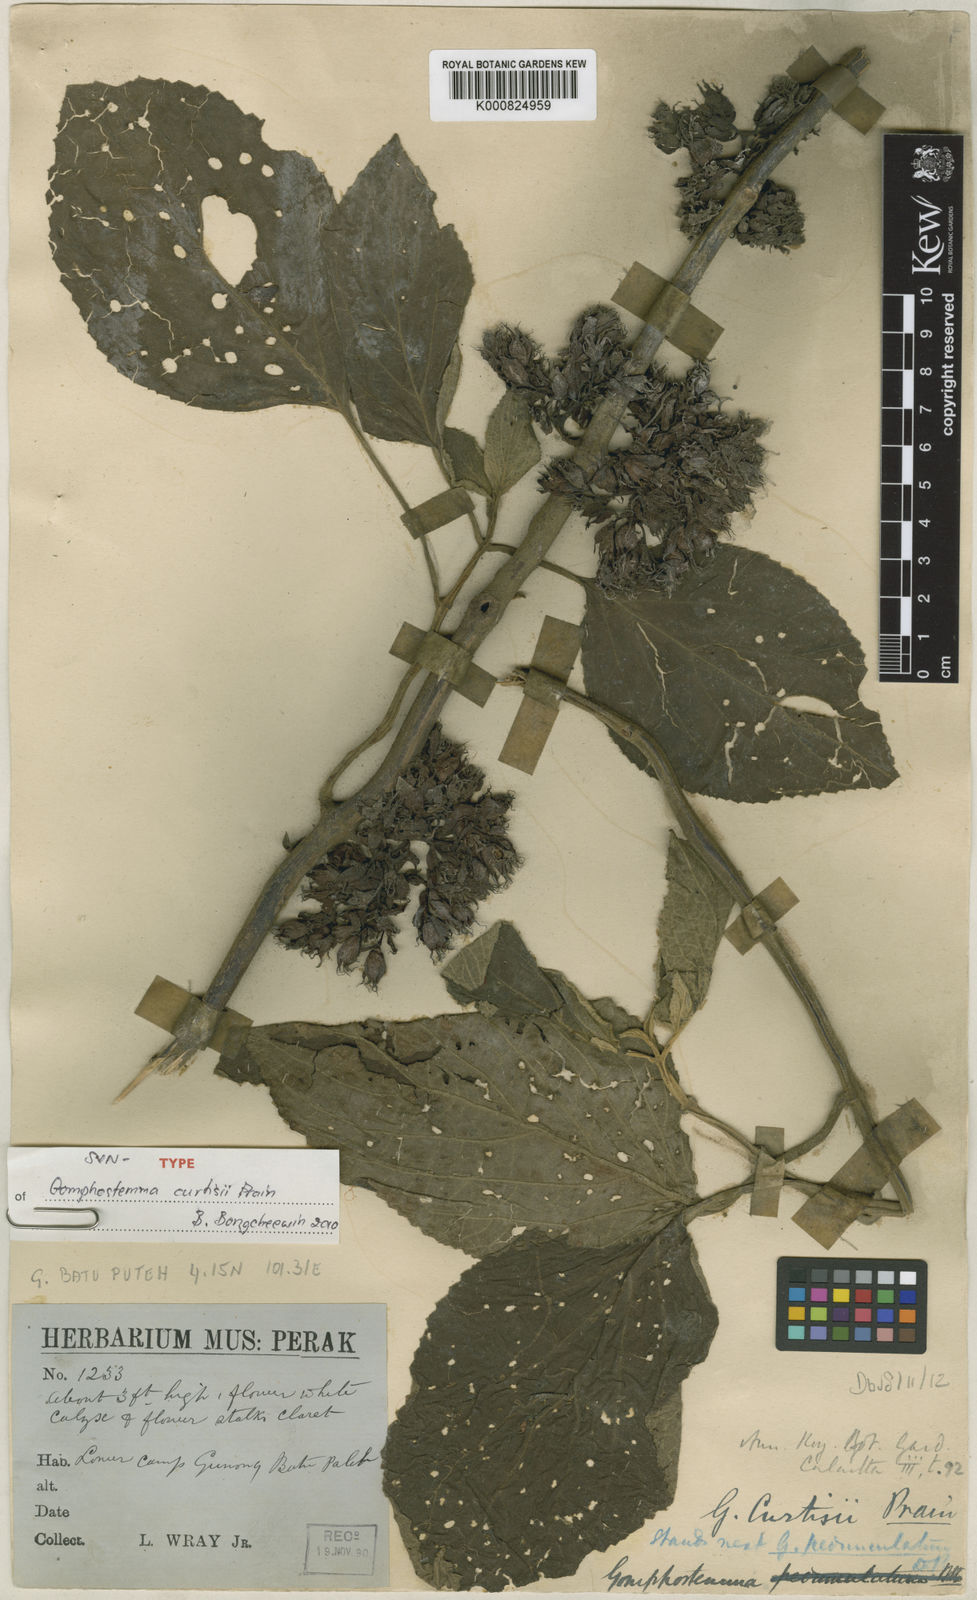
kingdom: Plantae
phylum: Tracheophyta
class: Magnoliopsida
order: Lamiales
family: Lamiaceae
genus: Gomphostemma
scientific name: Gomphostemma curtisii
